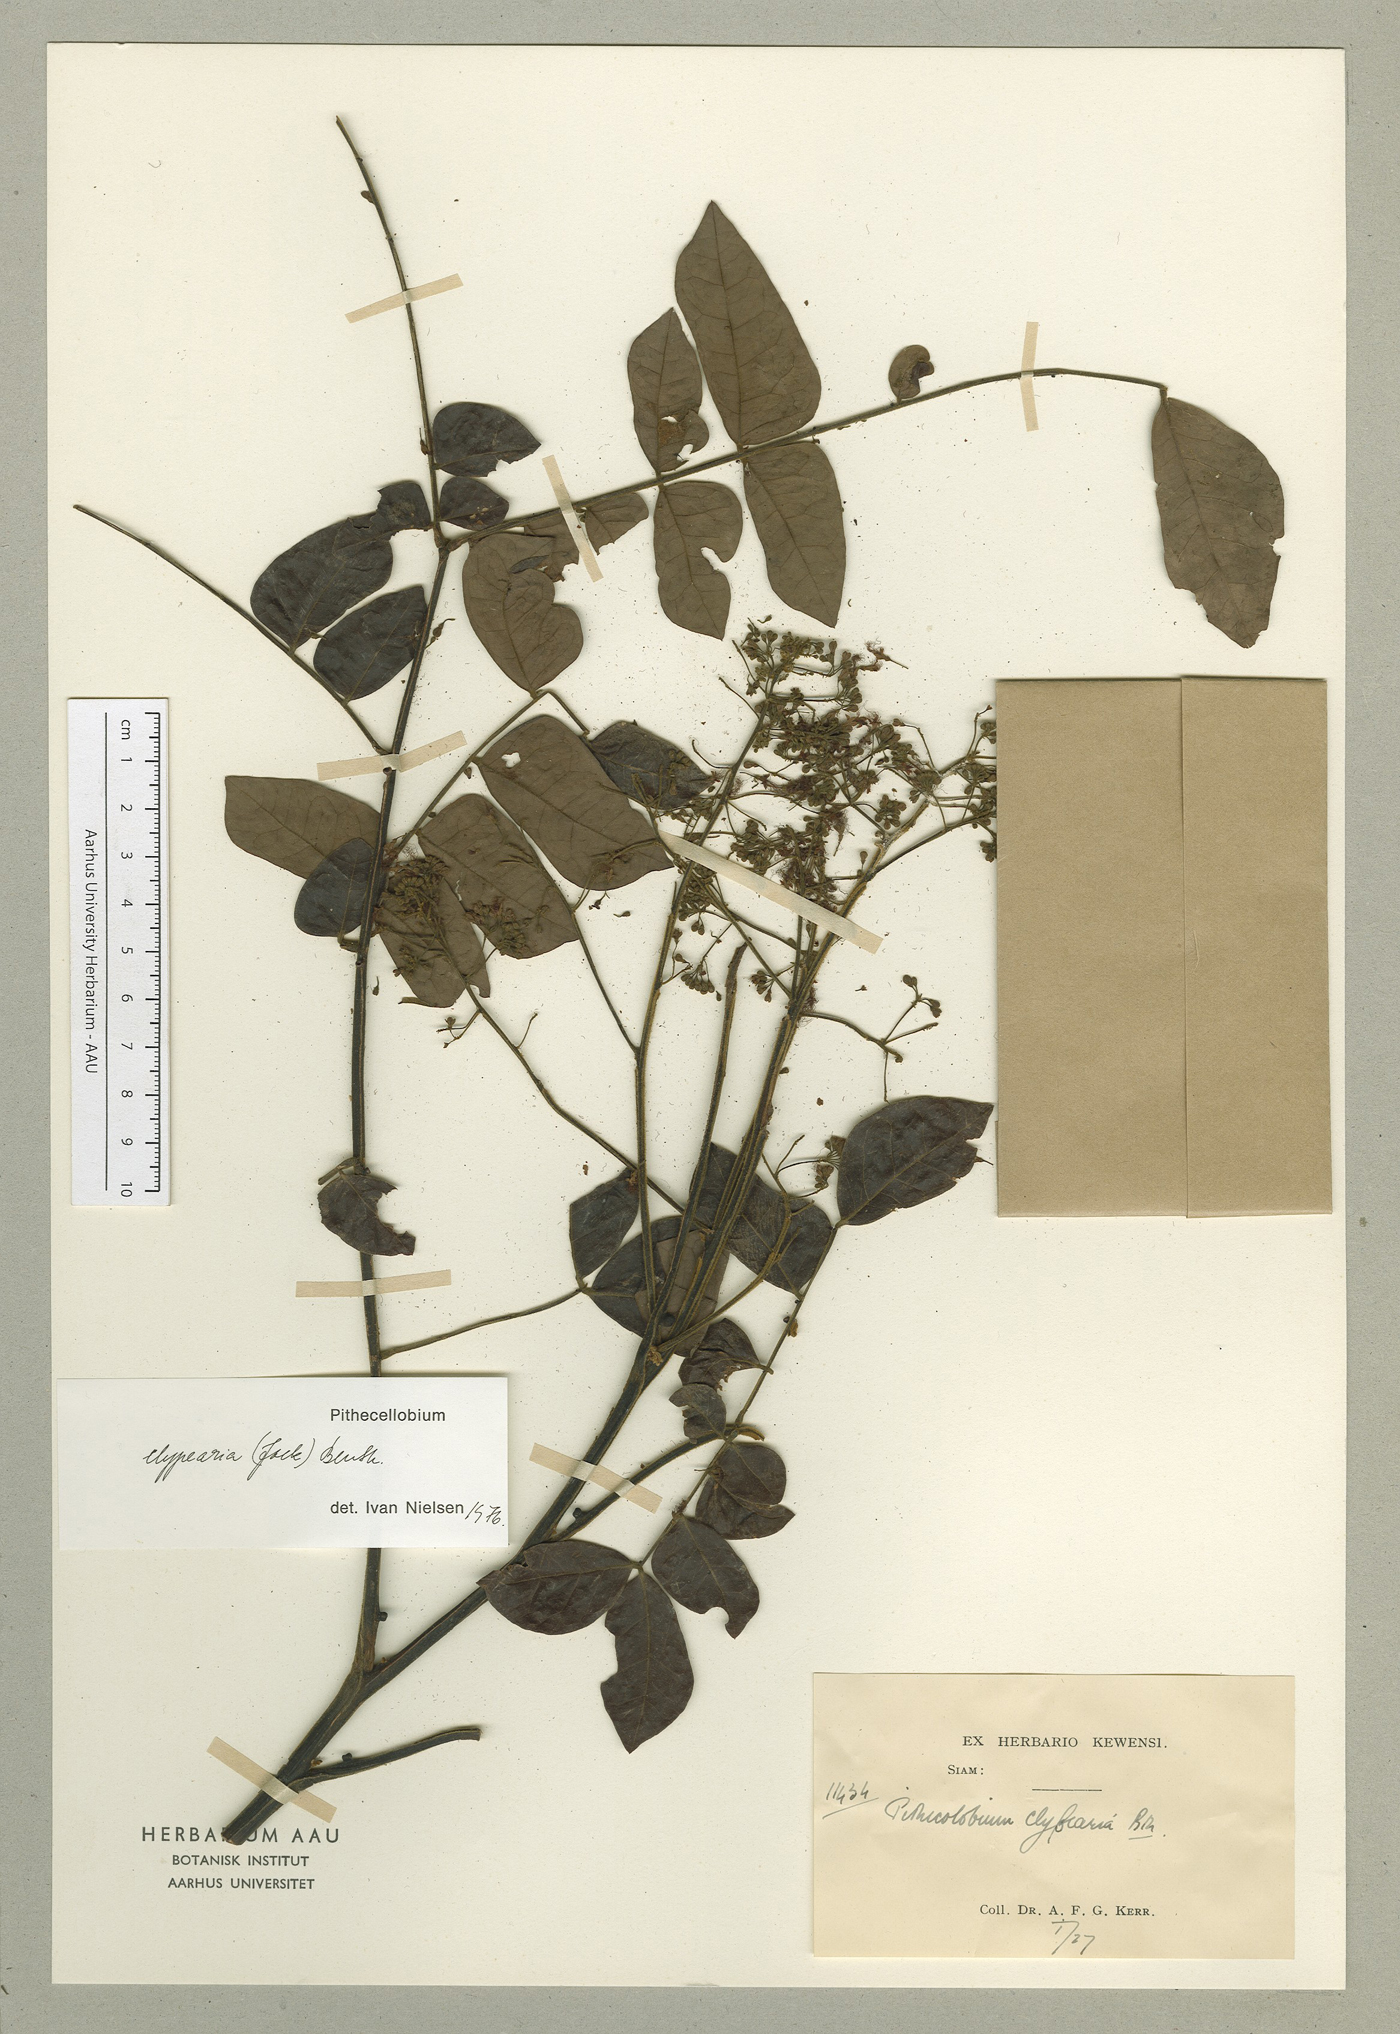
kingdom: Plantae
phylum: Tracheophyta
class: Magnoliopsida
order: Fabales
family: Fabaceae
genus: Archidendron
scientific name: Archidendron clypearia
